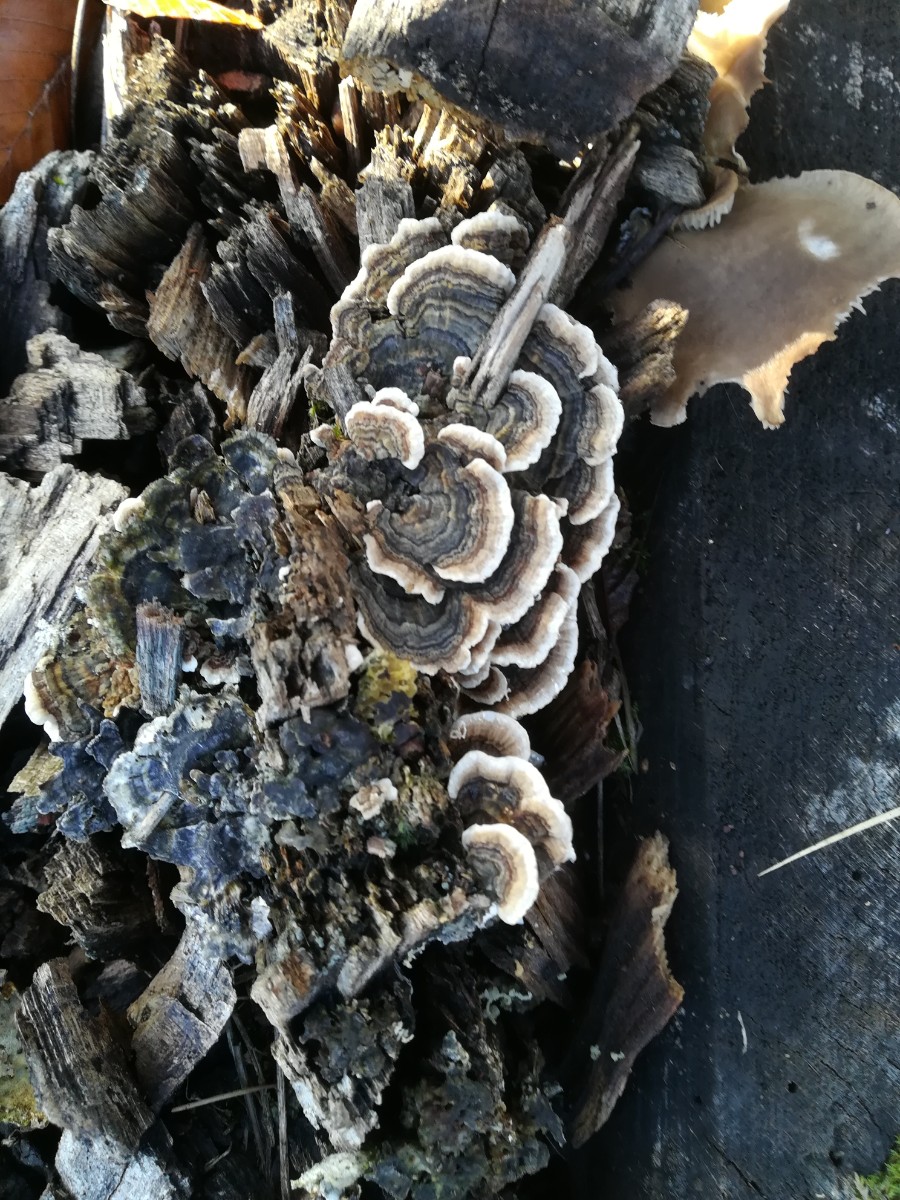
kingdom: Fungi
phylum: Basidiomycota
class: Agaricomycetes
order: Polyporales
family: Polyporaceae
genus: Trametes
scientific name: Trametes versicolor
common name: broget læderporesvamp
